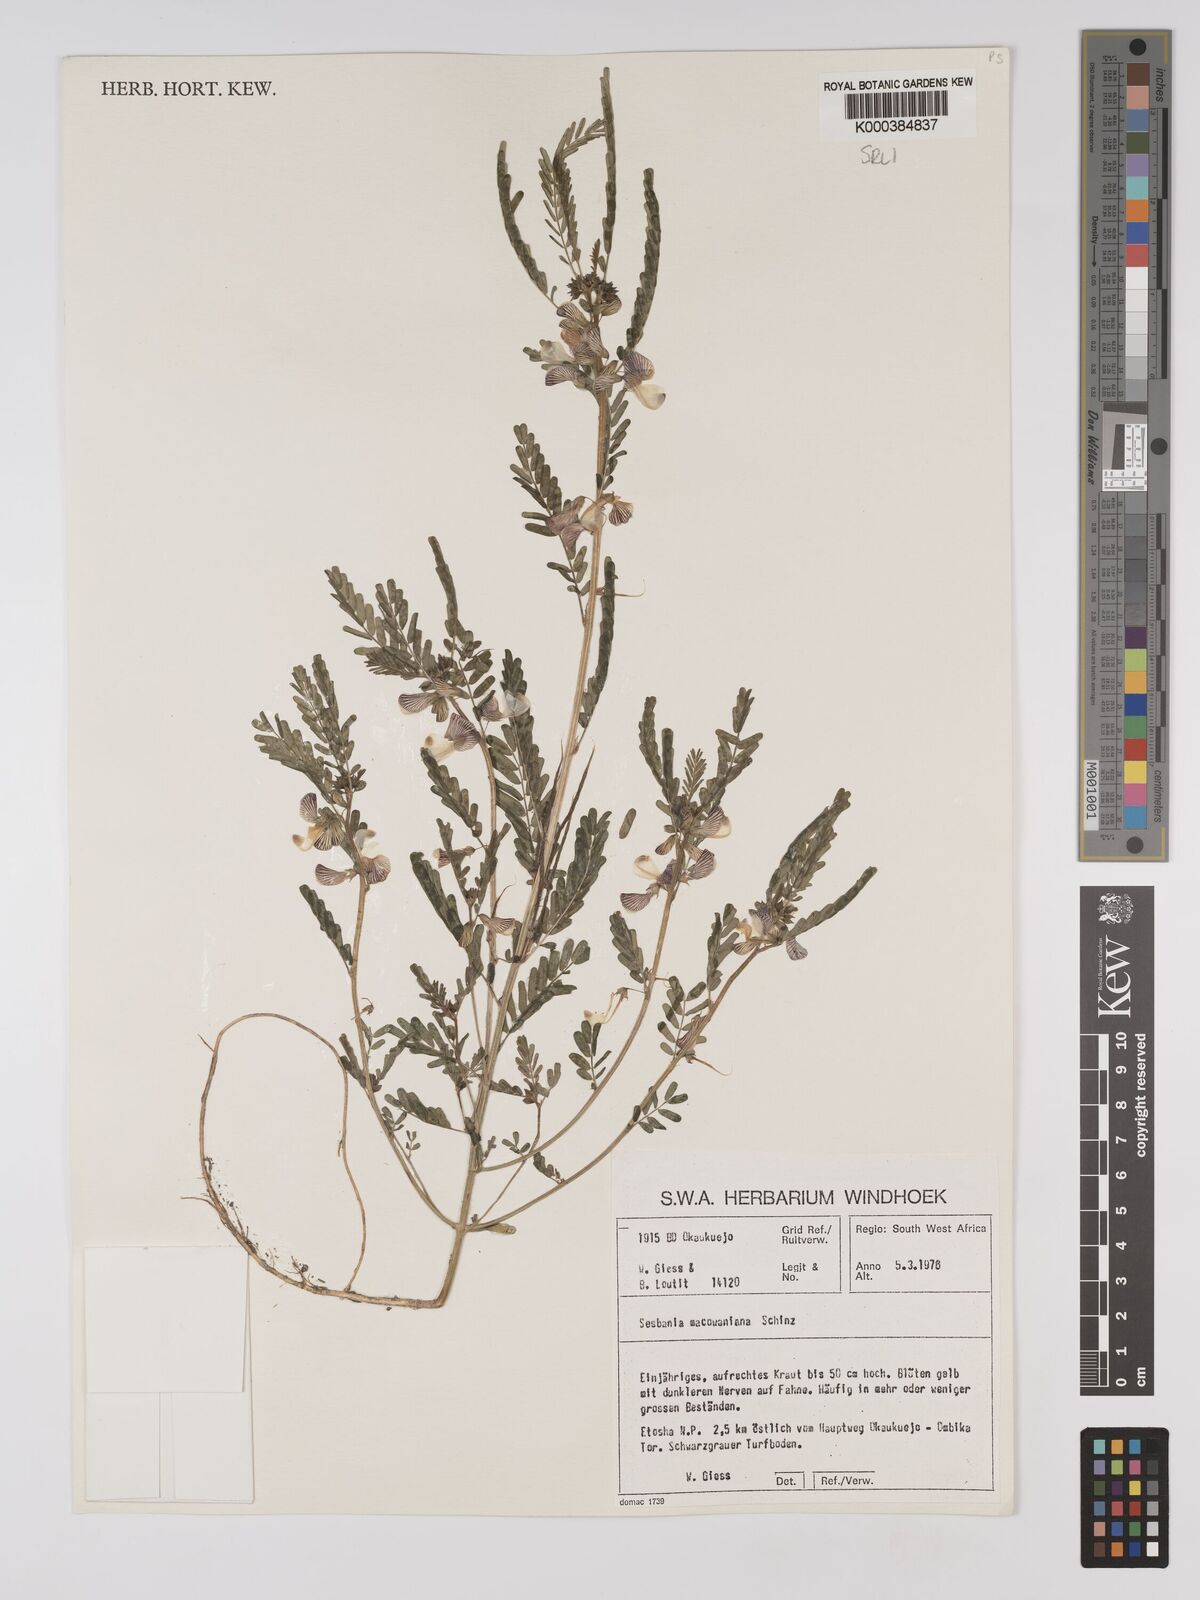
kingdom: Plantae
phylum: Tracheophyta
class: Magnoliopsida
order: Fabales
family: Fabaceae
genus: Sesbania
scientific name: Sesbania macowaniana
